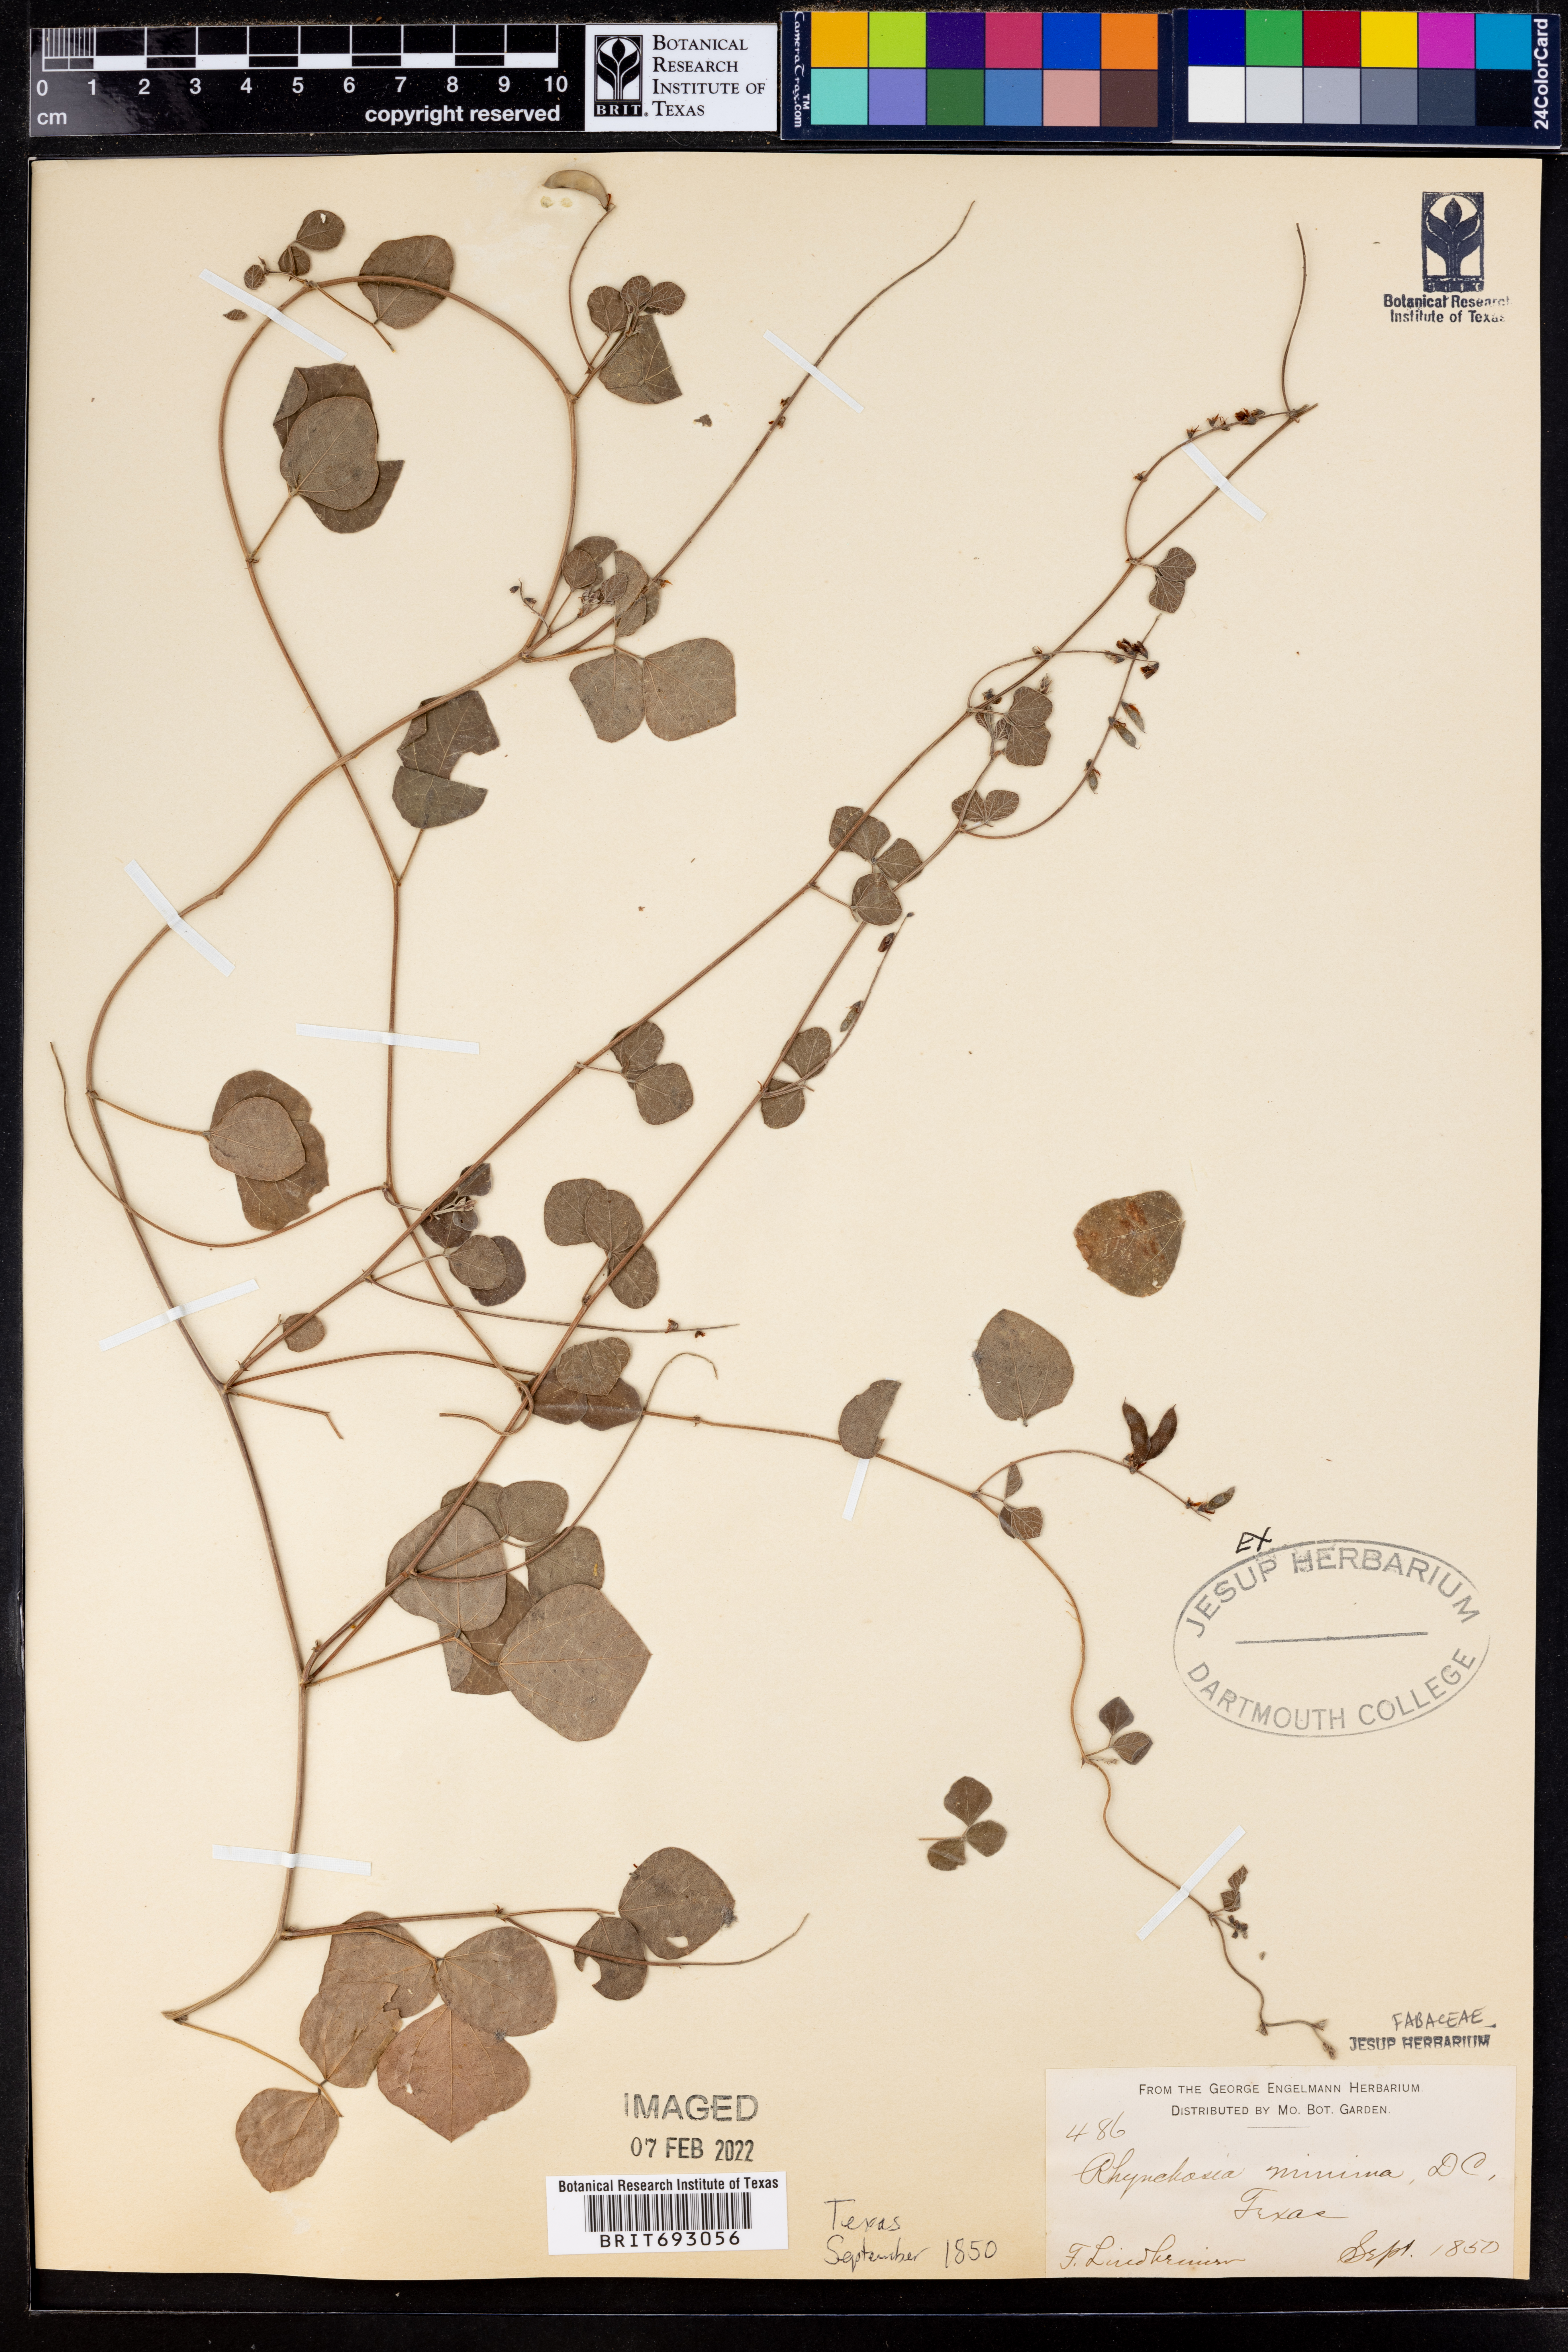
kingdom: Plantae
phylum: Tracheophyta
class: Magnoliopsida
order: Fabales
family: Fabaceae
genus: Rhynchosia
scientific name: Rhynchosia minima
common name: Least snoutbean
